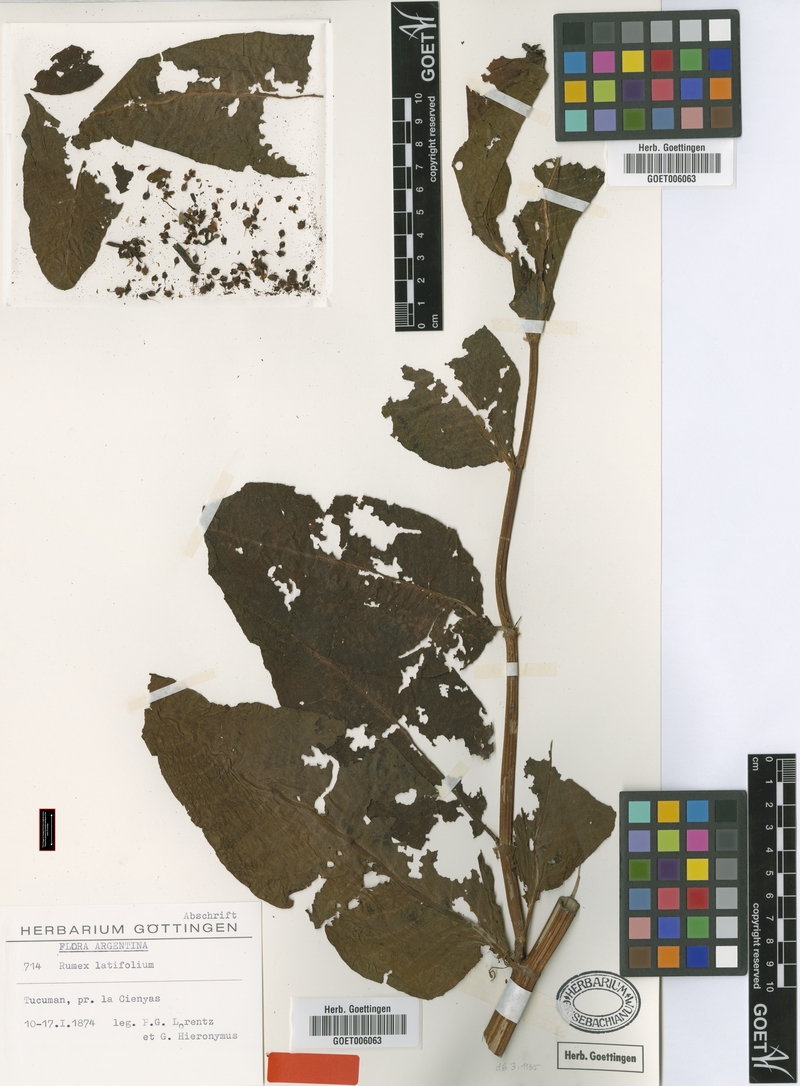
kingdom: Plantae
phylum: Tracheophyta
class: Magnoliopsida
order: Caryophyllales
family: Polygonaceae
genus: Rumex
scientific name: Rumex lorentzianus
